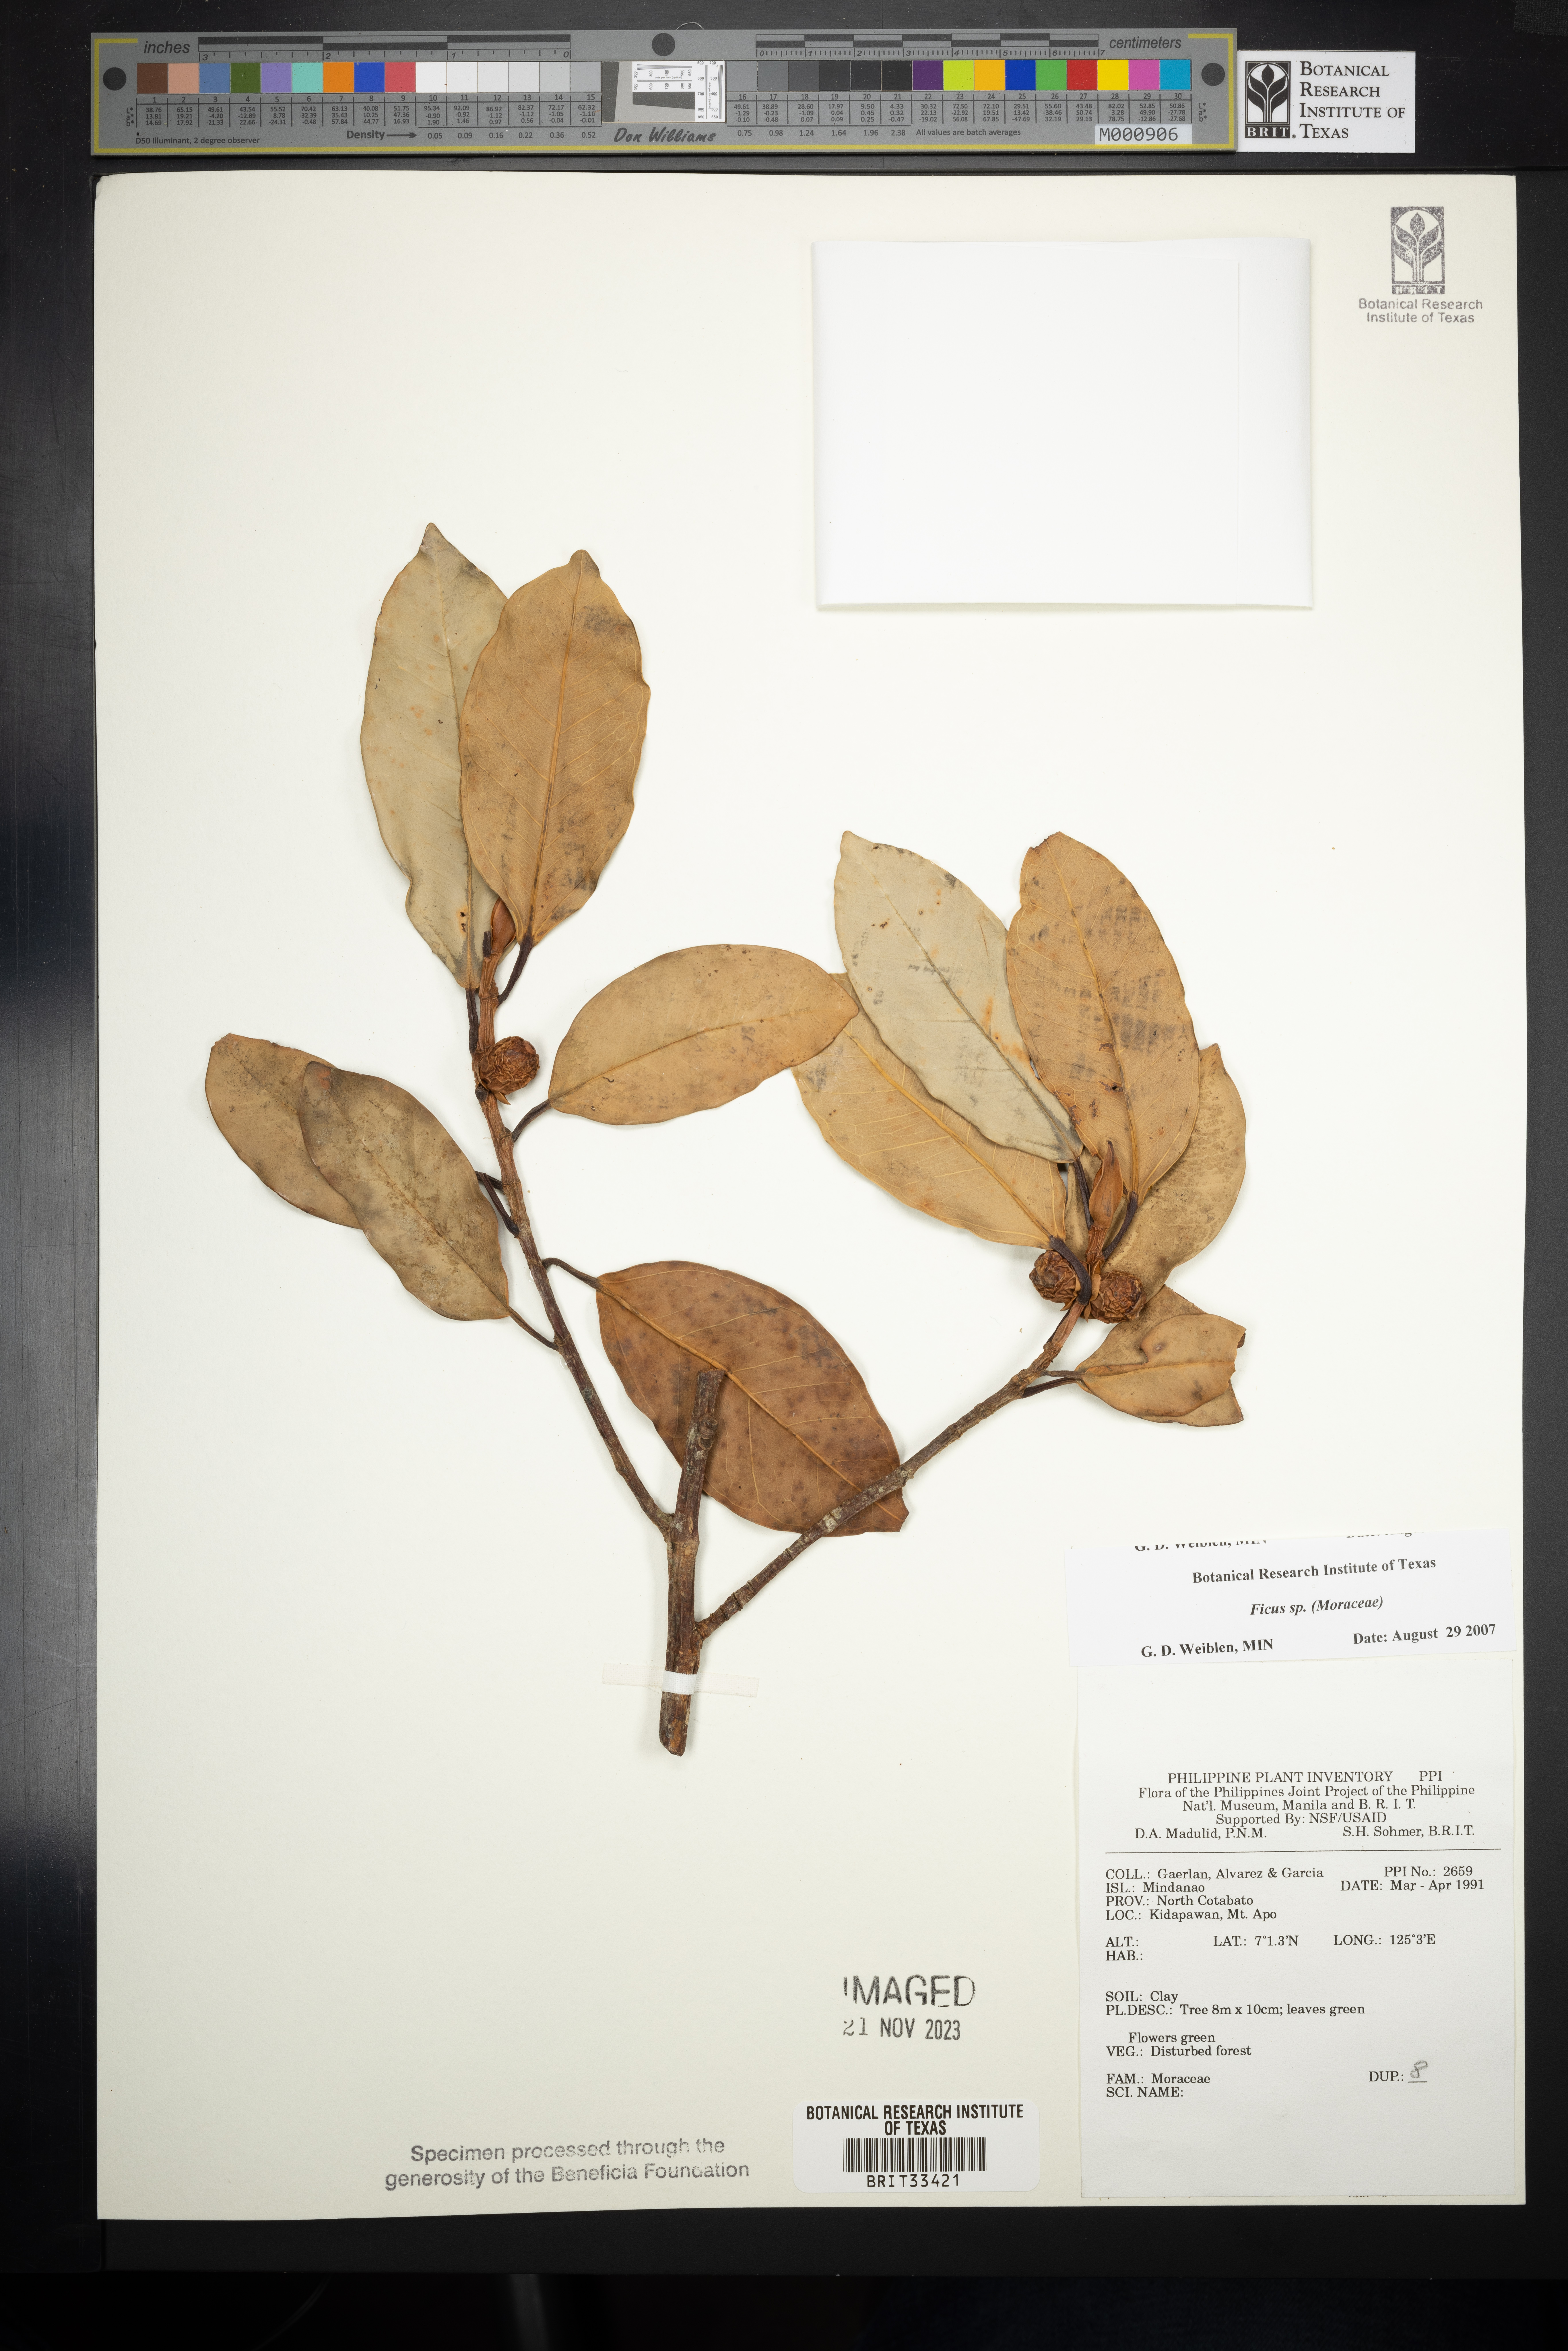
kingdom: Plantae
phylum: Tracheophyta
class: Magnoliopsida
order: Rosales
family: Moraceae
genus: Ficus
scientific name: Ficus
